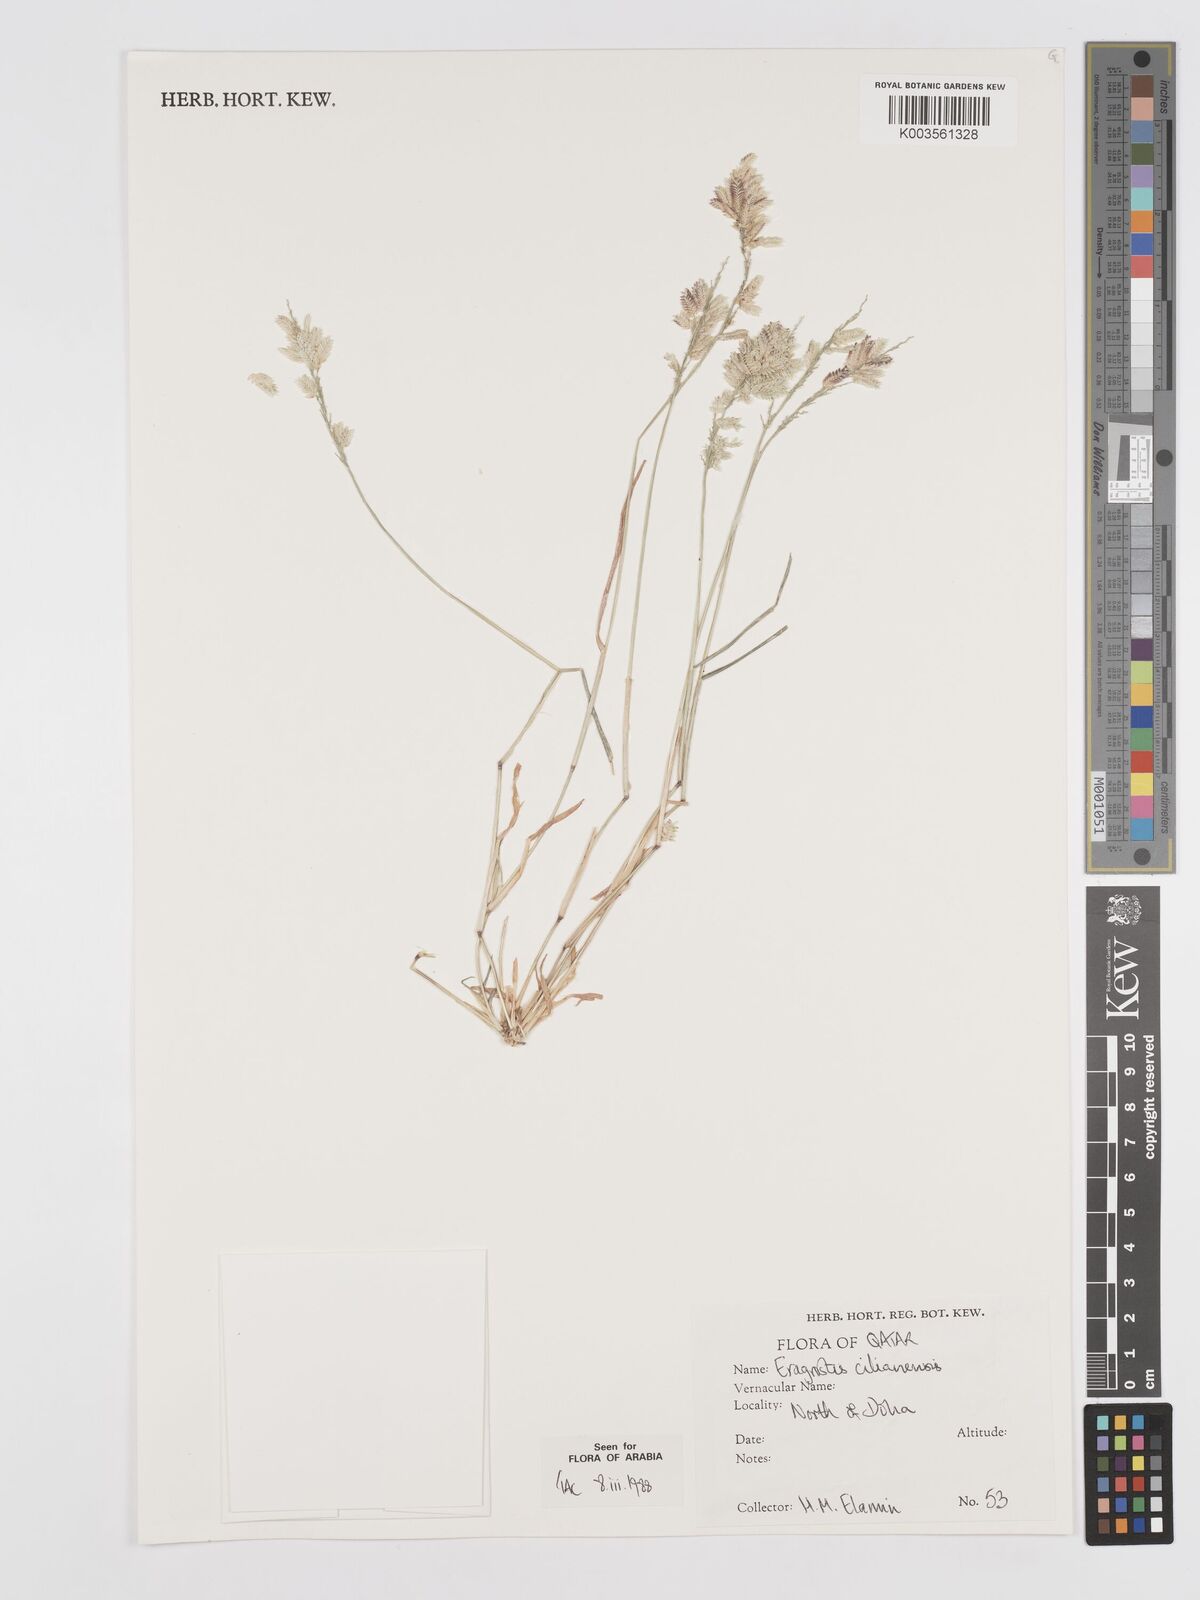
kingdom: Plantae
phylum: Tracheophyta
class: Liliopsida
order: Poales
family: Poaceae
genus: Eragrostis
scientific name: Eragrostis cilianensis
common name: Stinkgrass
